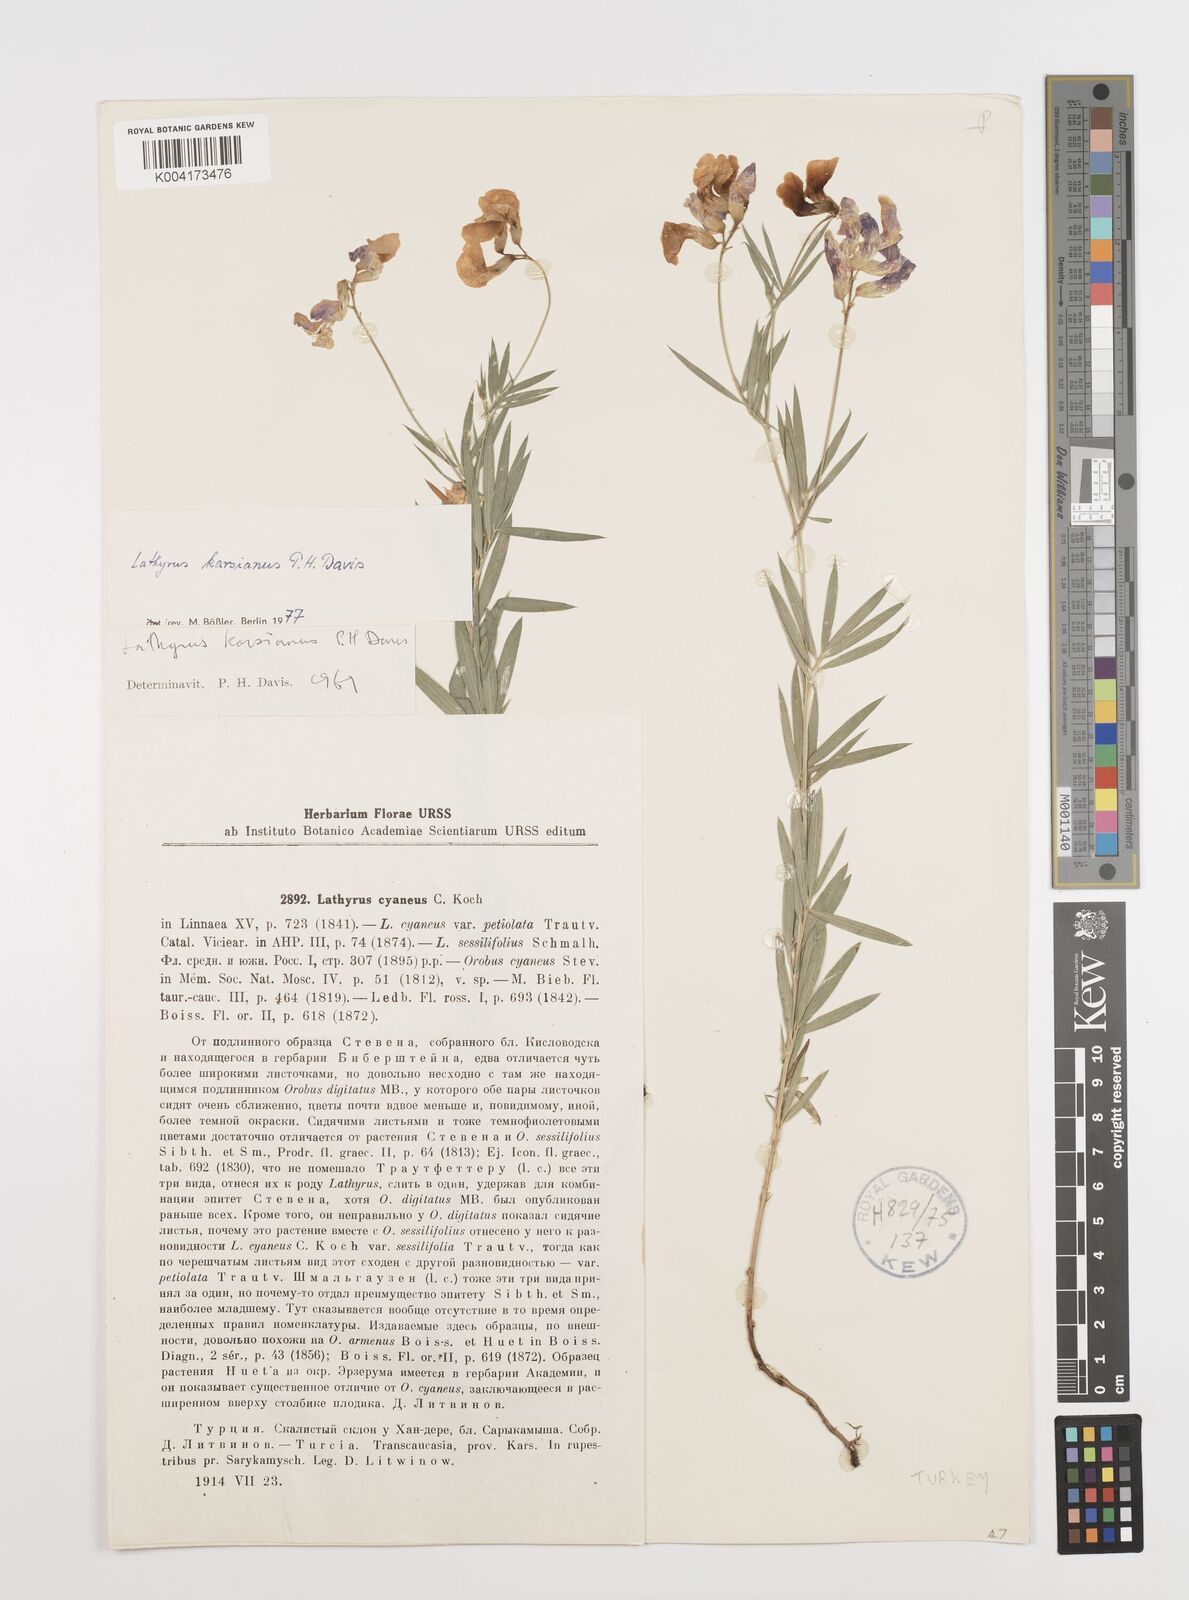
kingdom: Plantae
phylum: Tracheophyta
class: Magnoliopsida
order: Fabales
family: Fabaceae
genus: Lathyrus
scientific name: Lathyrus karsianus
